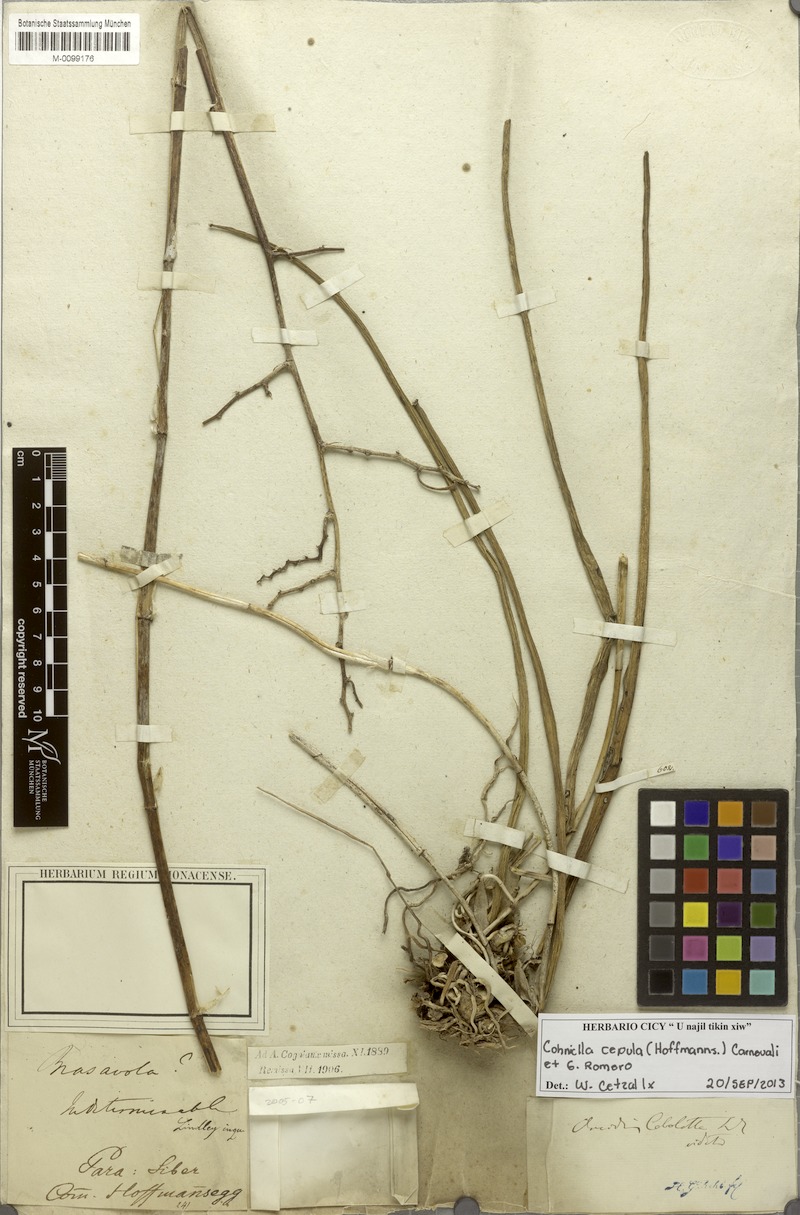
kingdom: Plantae
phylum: Tracheophyta
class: Liliopsida
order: Asparagales
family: Orchidaceae
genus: Trichocentrum
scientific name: Trichocentrum cepula
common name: Rat-tail orchid
